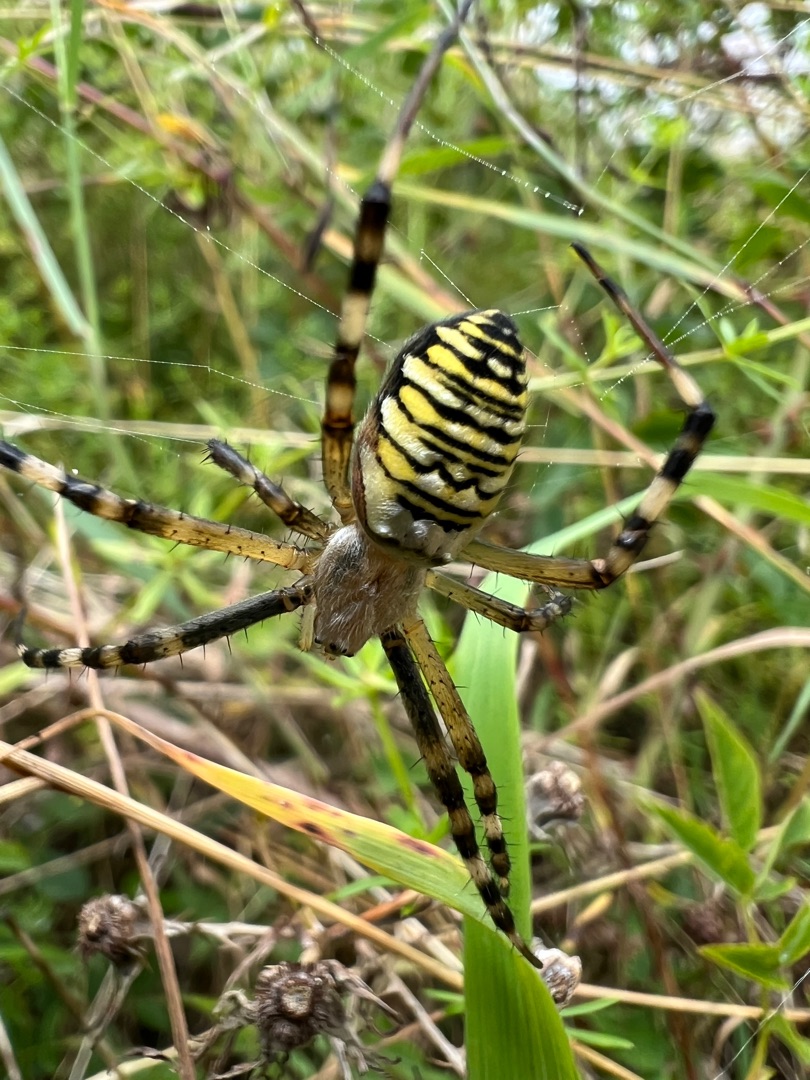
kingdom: Animalia
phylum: Arthropoda
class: Arachnida
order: Araneae
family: Araneidae
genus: Argiope
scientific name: Argiope bruennichi
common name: Hvepseedderkop
